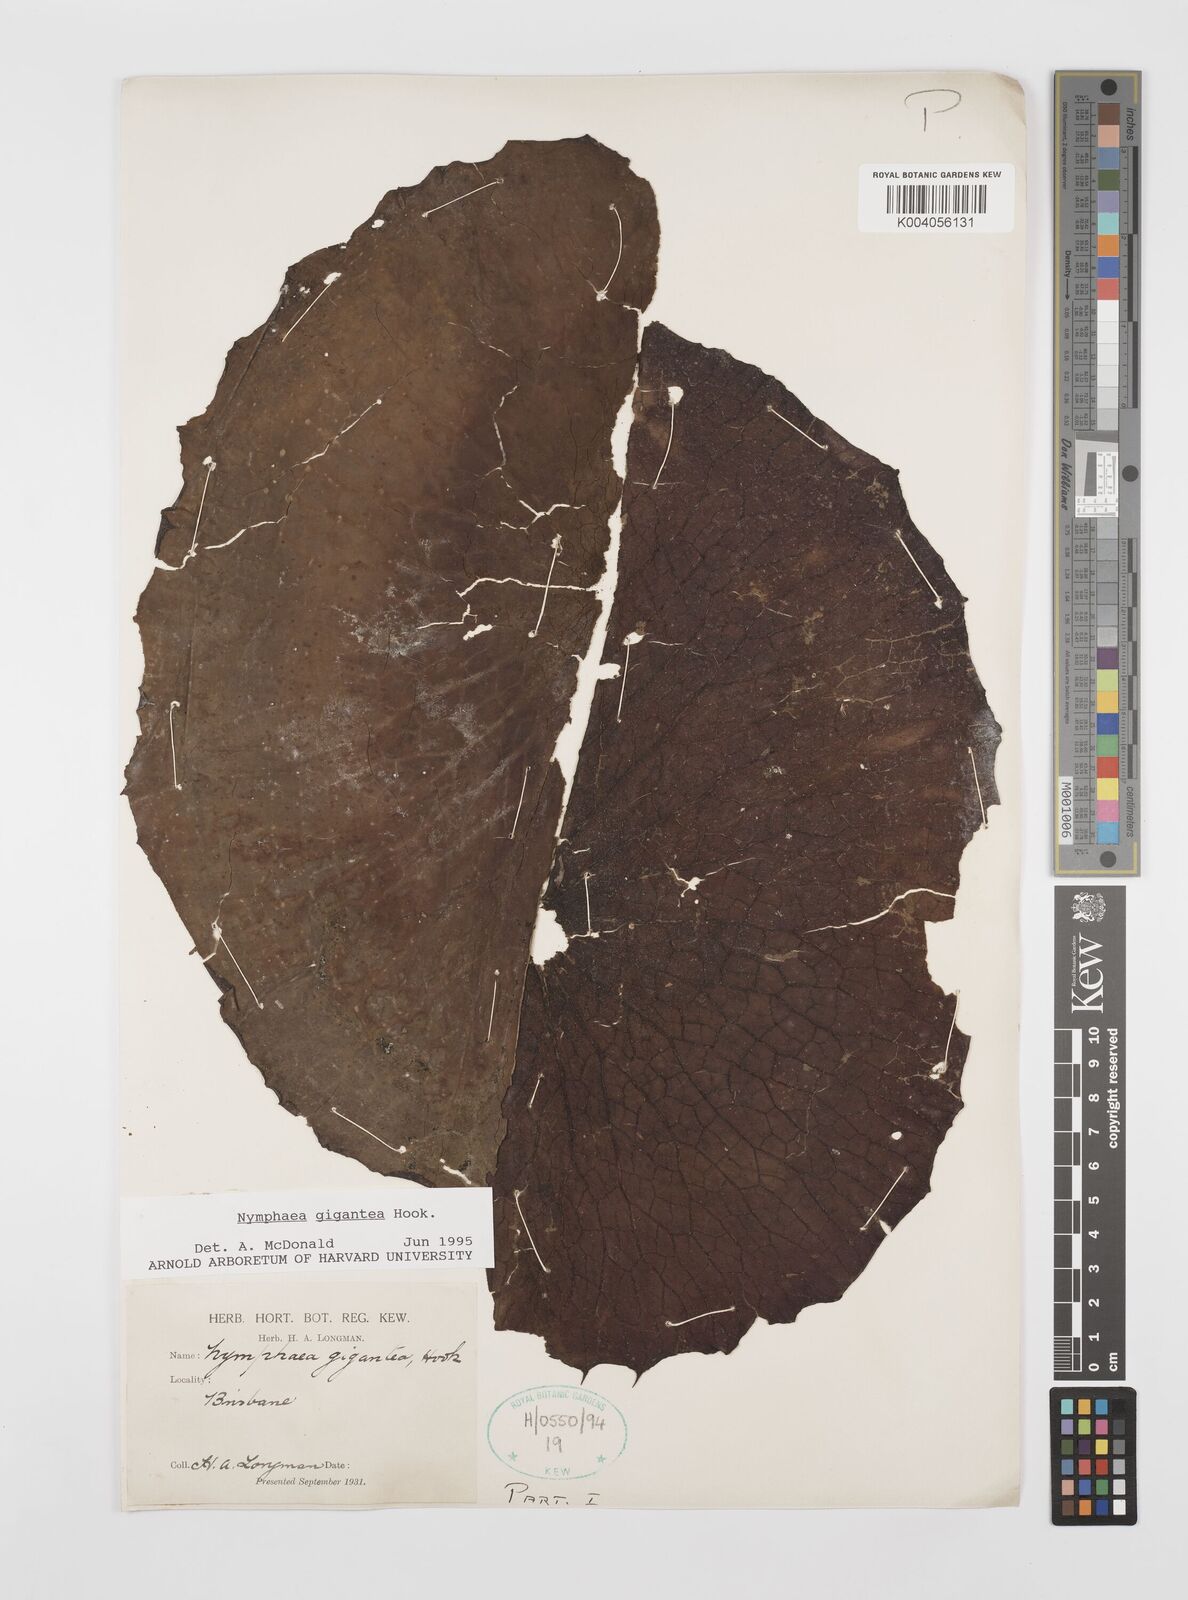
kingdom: Plantae
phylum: Tracheophyta
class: Magnoliopsida
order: Nymphaeales
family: Nymphaeaceae
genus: Nymphaea
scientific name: Nymphaea gigantea
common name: Giant water-lily
